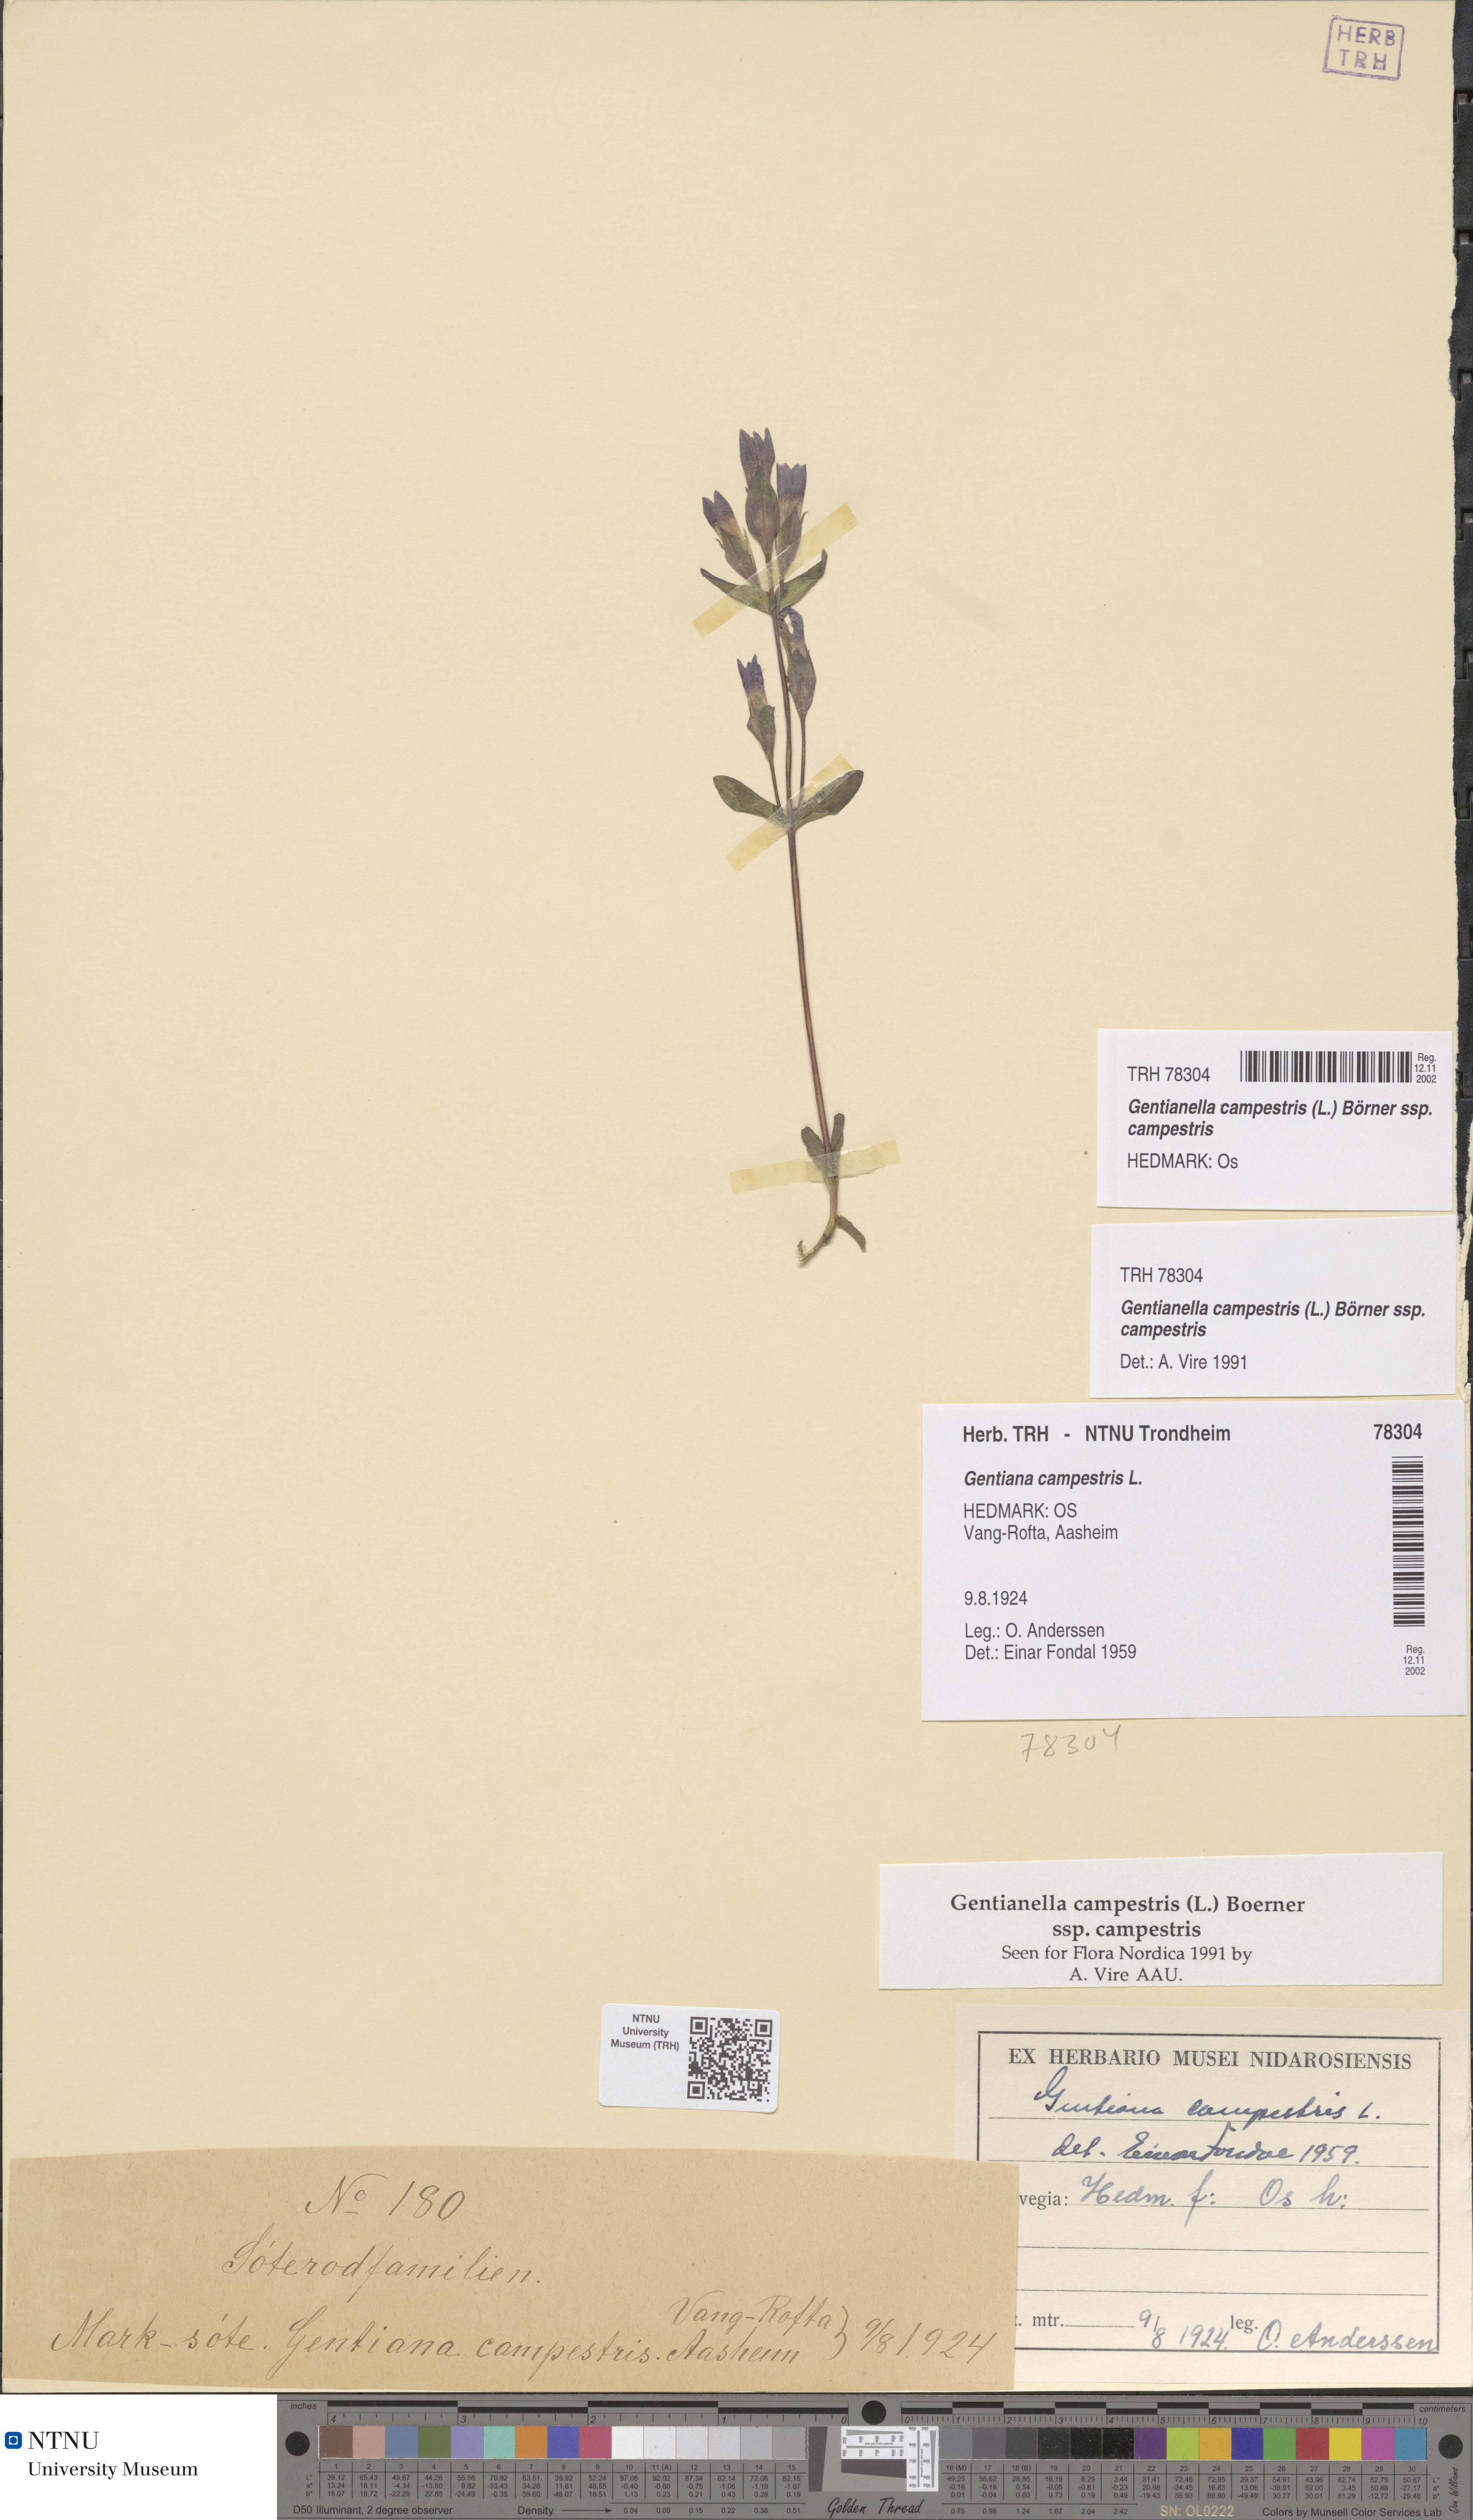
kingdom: Plantae
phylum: Tracheophyta
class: Magnoliopsida
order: Gentianales
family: Gentianaceae
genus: Gentianella
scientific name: Gentianella campestris
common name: Field gentian
